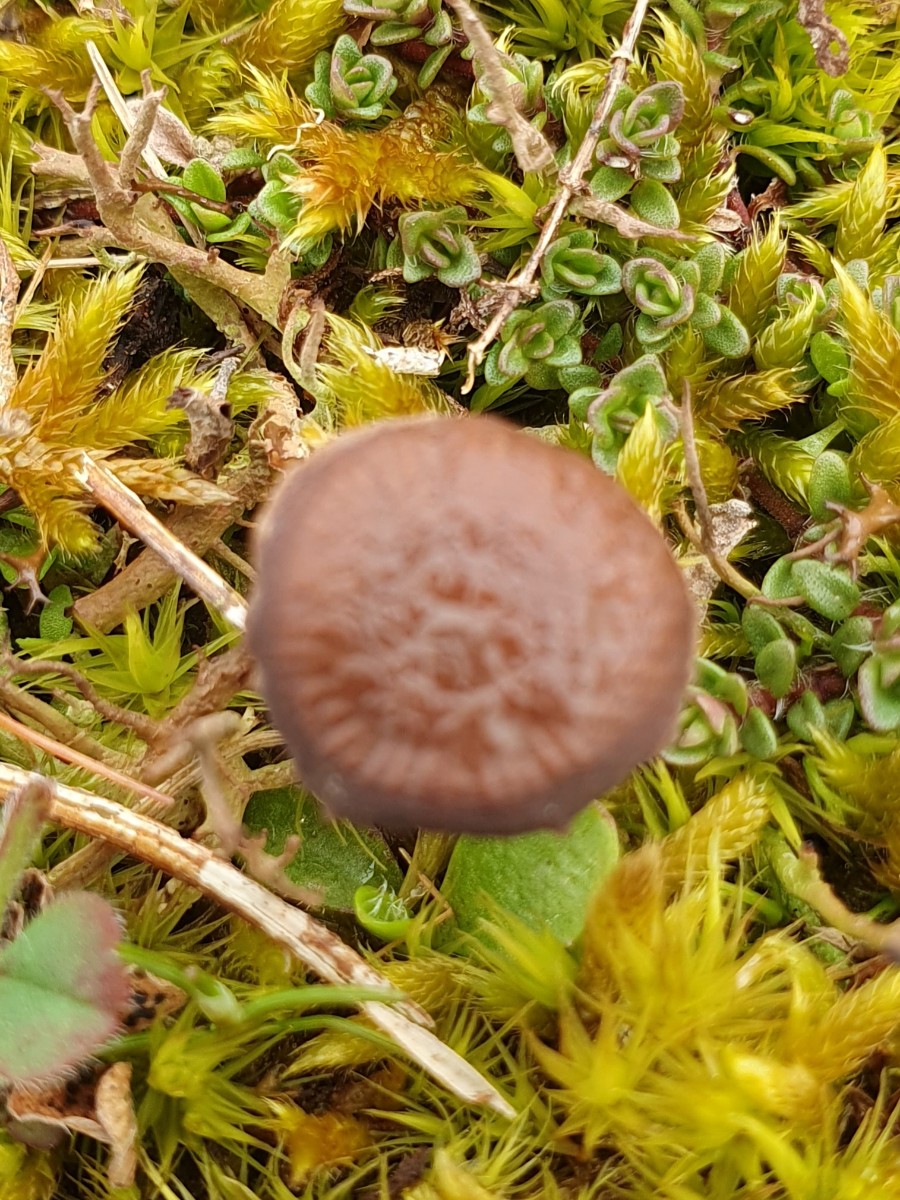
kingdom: Fungi
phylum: Basidiomycota
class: Agaricomycetes
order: Agaricales
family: Strophariaceae
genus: Deconica
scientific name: Deconica montana
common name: rødbrun stråhat
